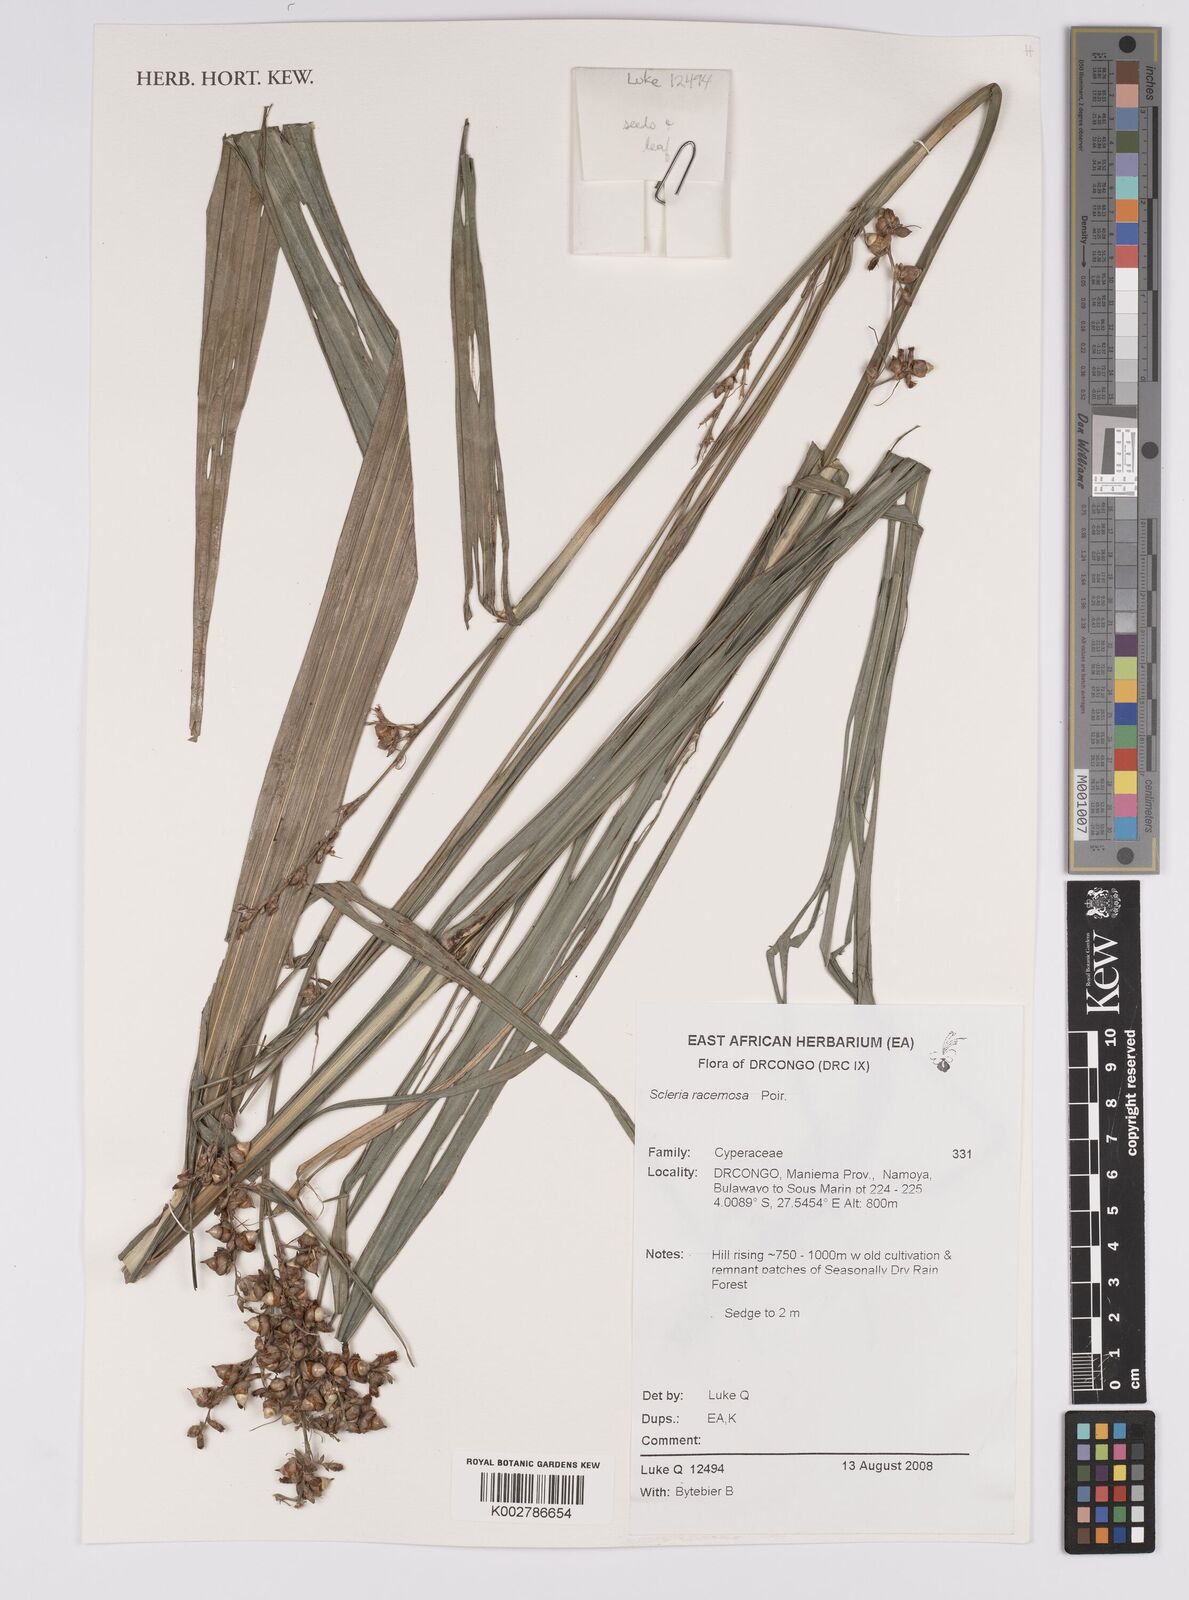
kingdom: Plantae
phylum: Tracheophyta
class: Liliopsida
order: Poales
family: Cyperaceae
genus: Scleria
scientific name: Scleria racemosa
